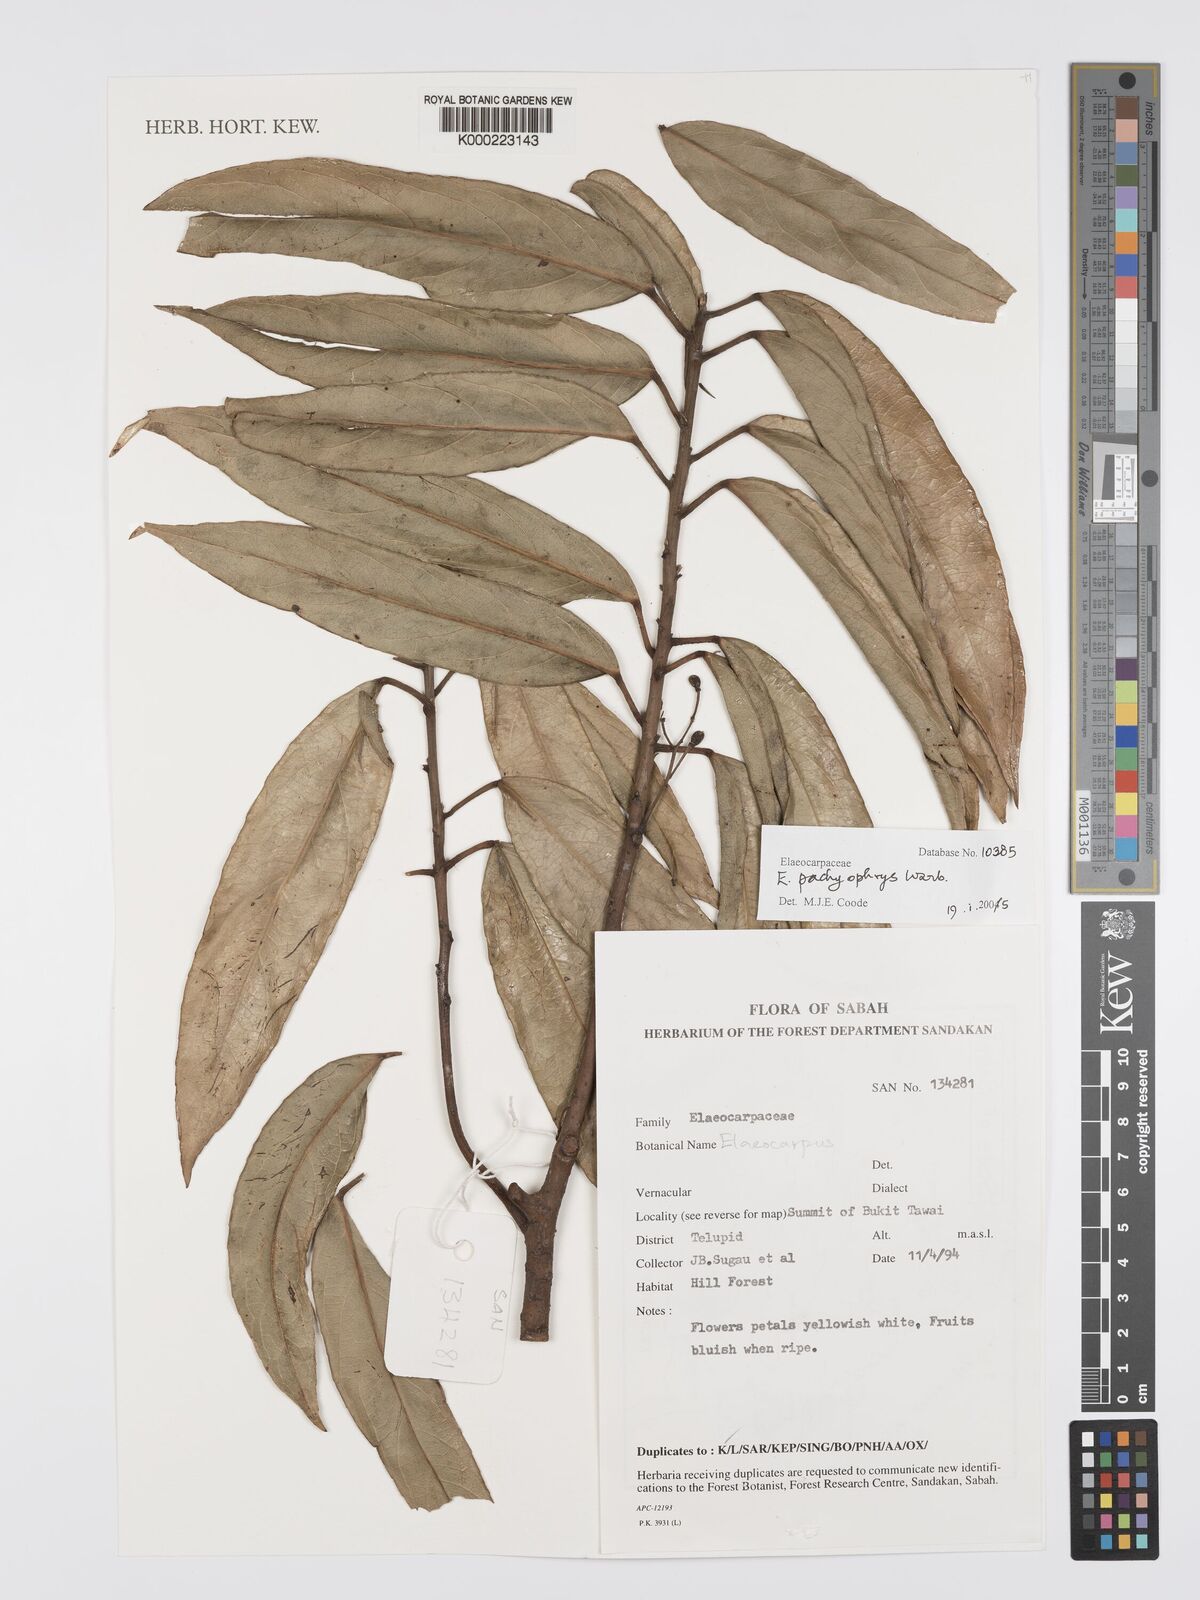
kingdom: Plantae
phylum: Tracheophyta
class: Magnoliopsida
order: Oxalidales
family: Elaeocarpaceae
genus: Elaeocarpus
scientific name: Elaeocarpus
